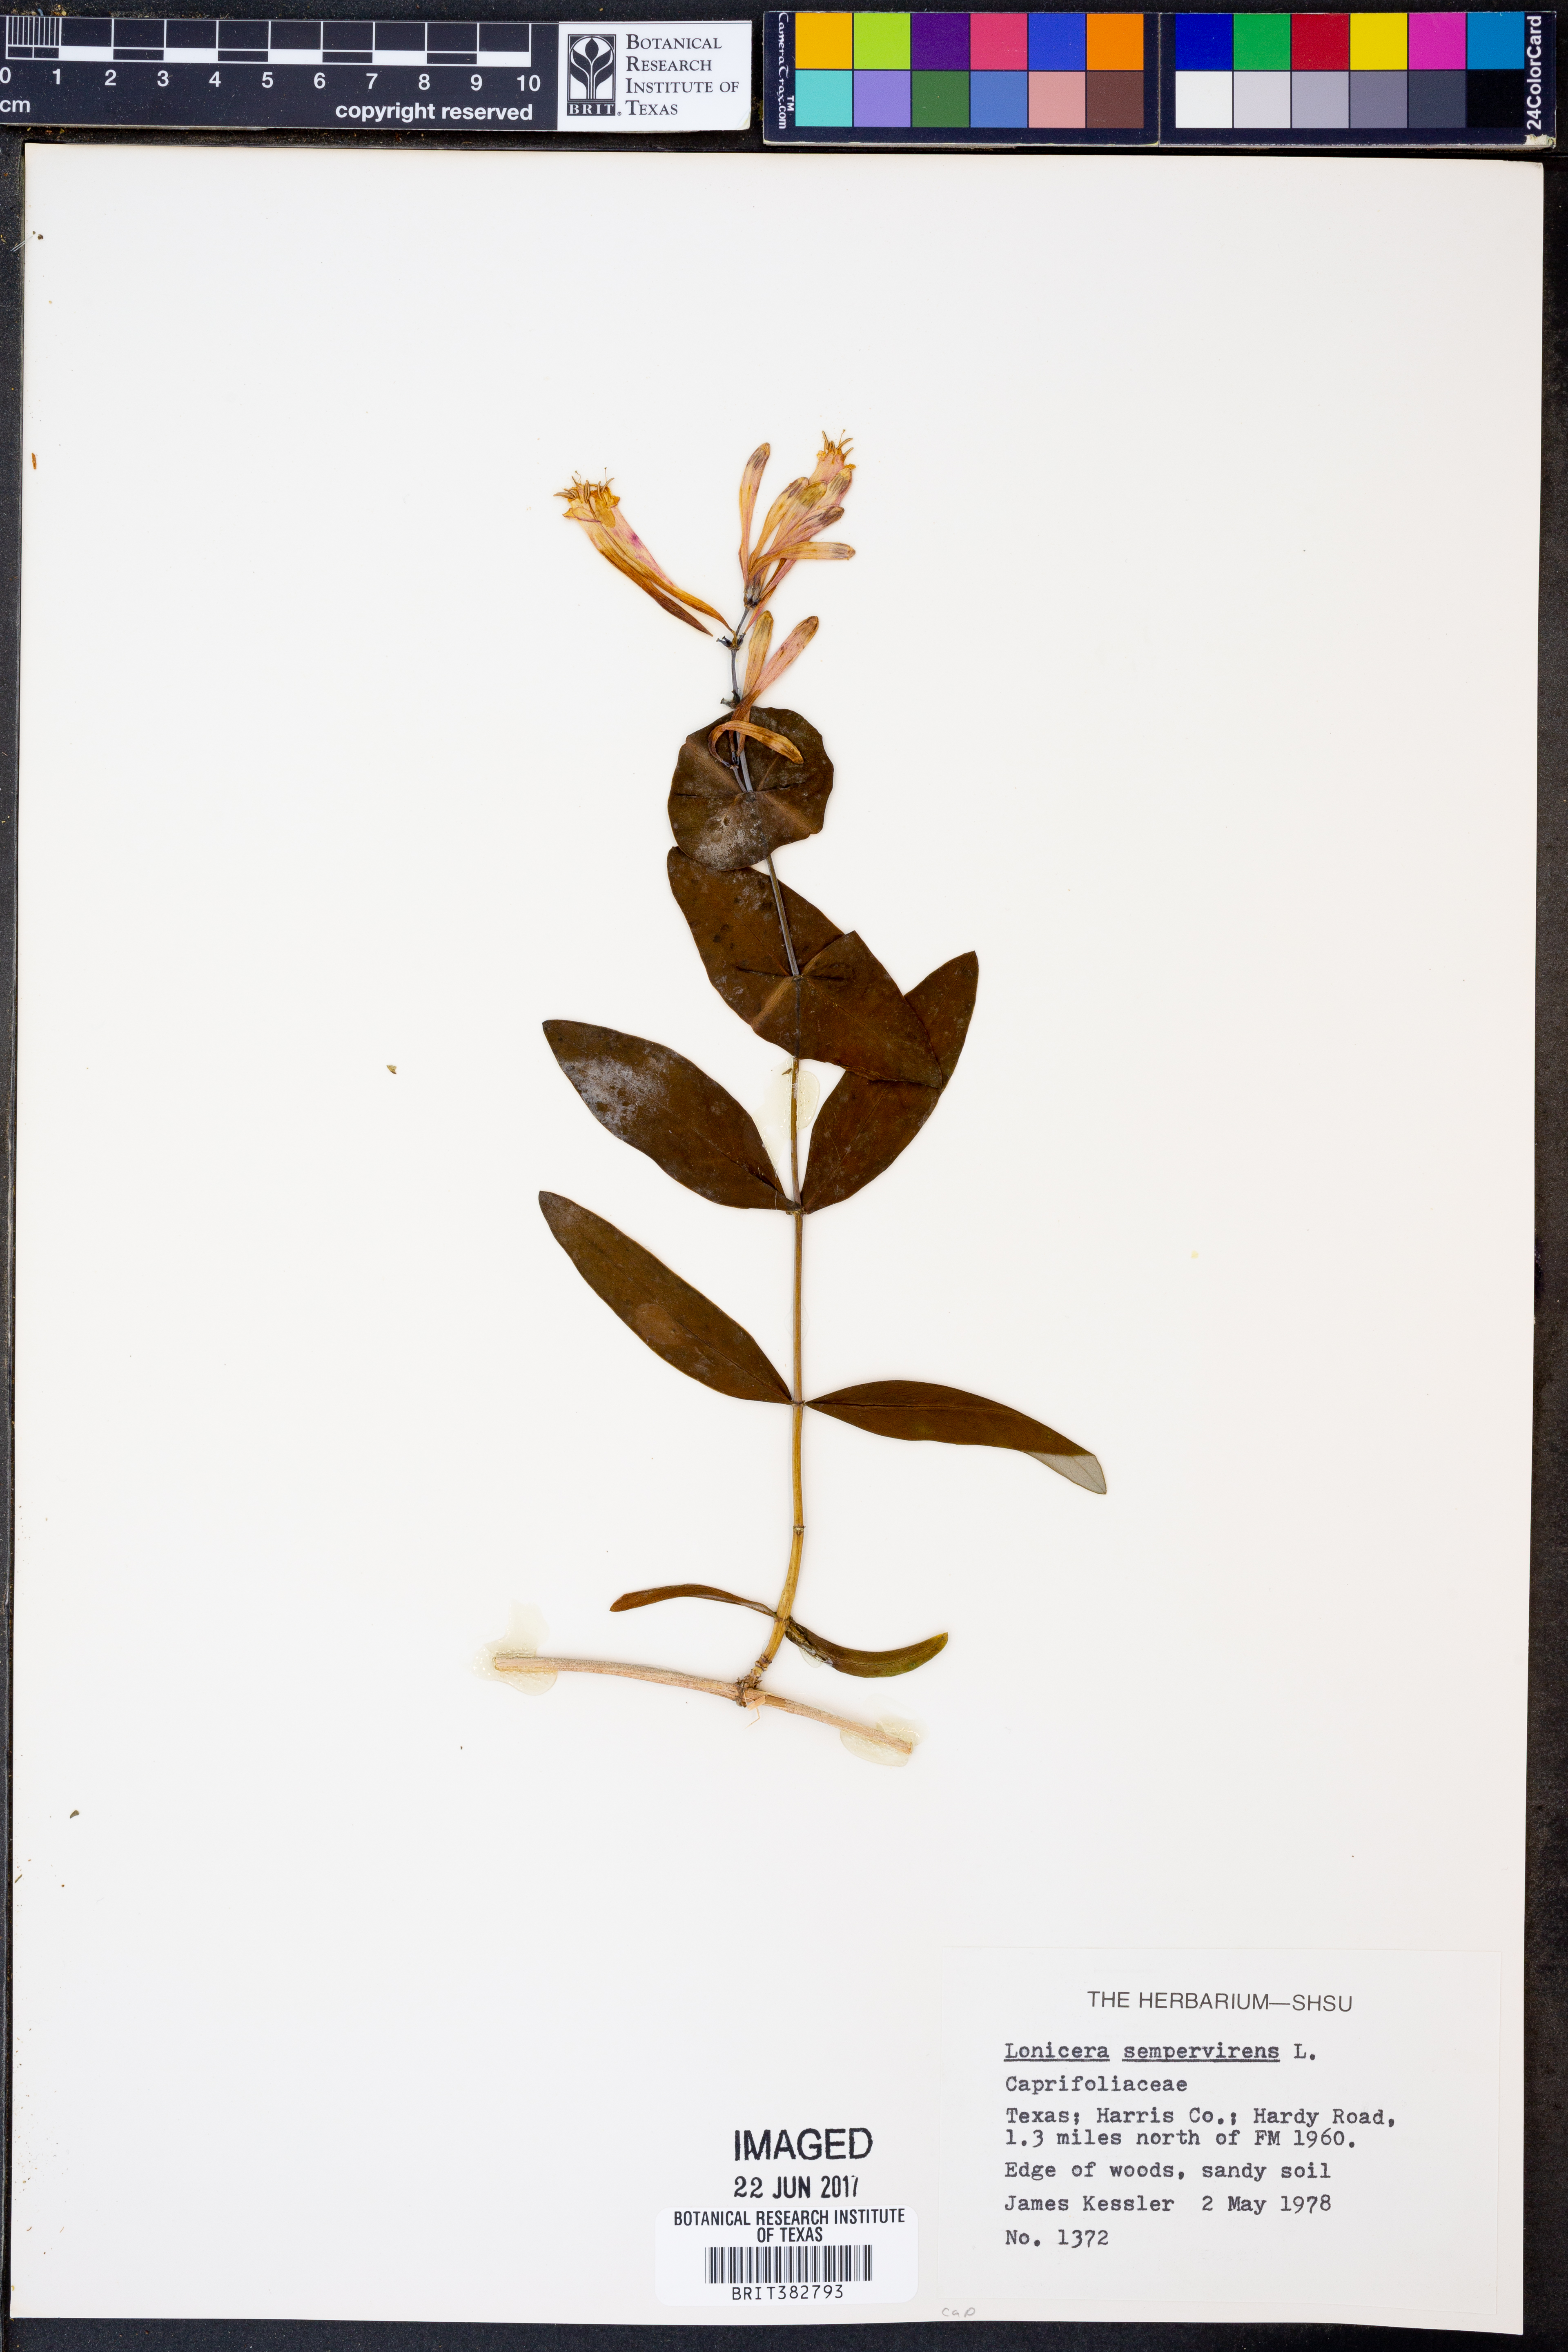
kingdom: Plantae
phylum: Tracheophyta
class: Magnoliopsida
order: Dipsacales
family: Caprifoliaceae
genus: Lonicera
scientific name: Lonicera sempervirens
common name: Coral honeysuckle
